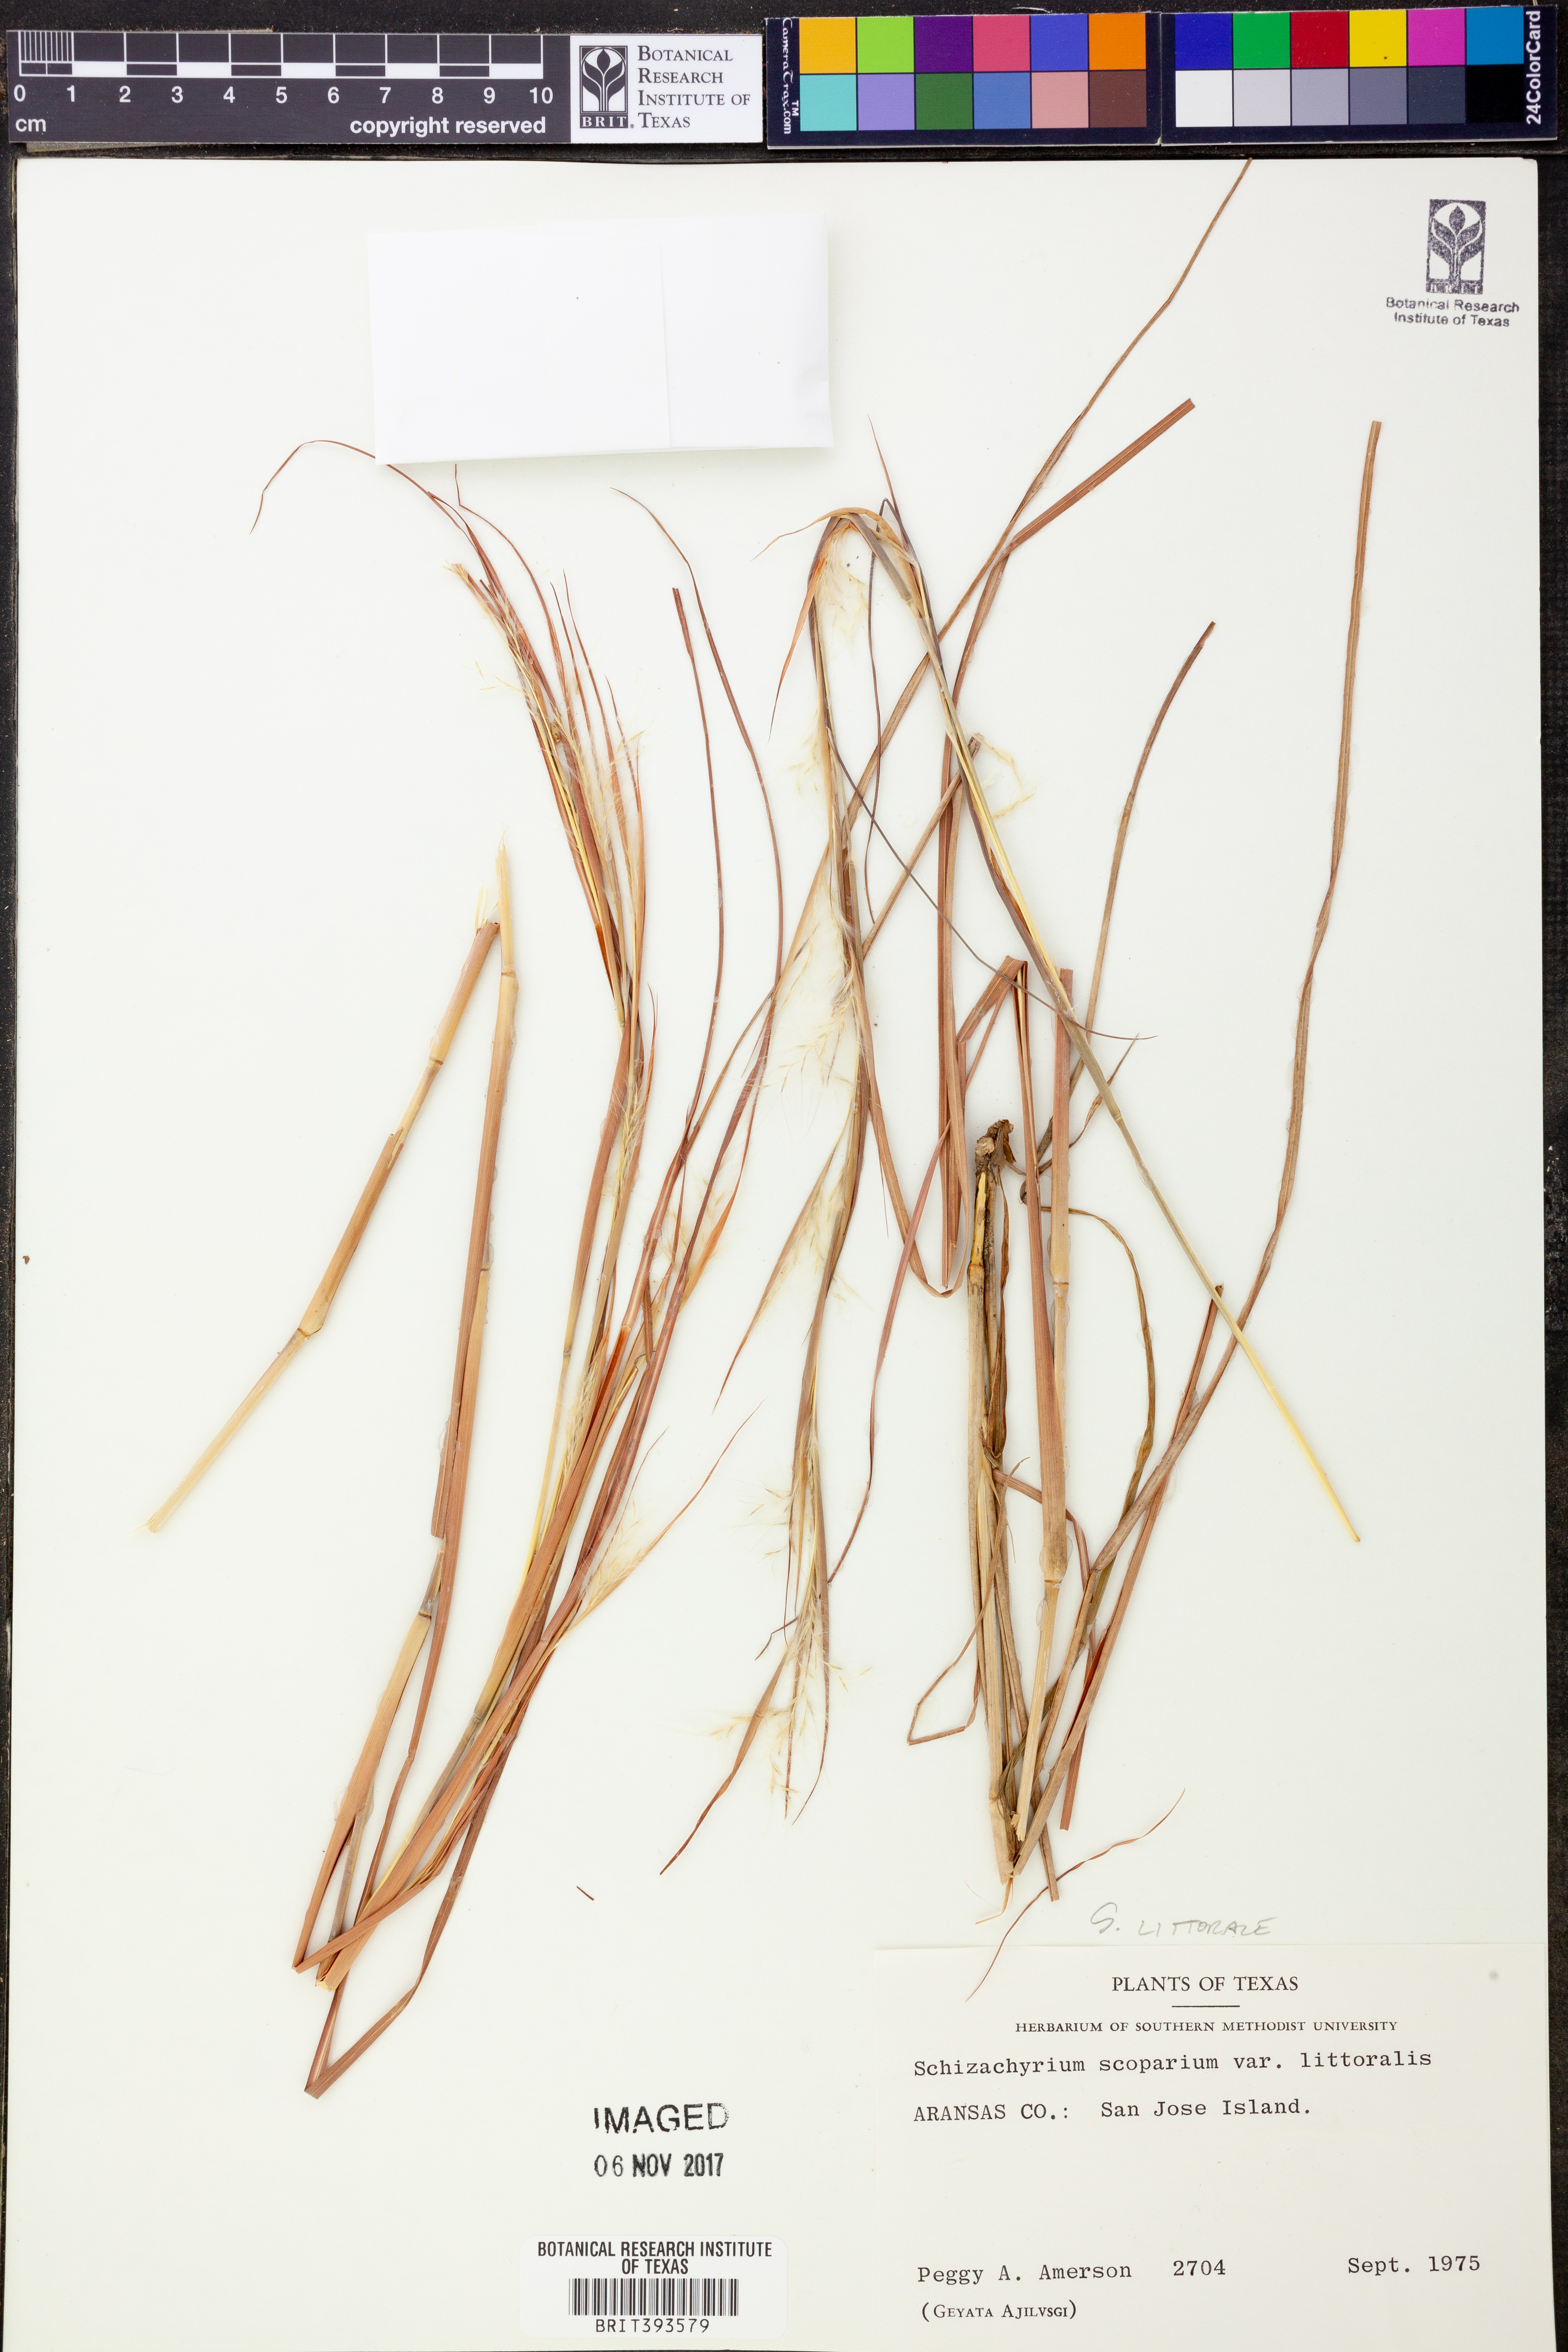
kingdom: Plantae
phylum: Tracheophyta
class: Liliopsida
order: Poales
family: Poaceae
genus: Schizachyrium
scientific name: Schizachyrium scoparium
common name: Little bluestem
